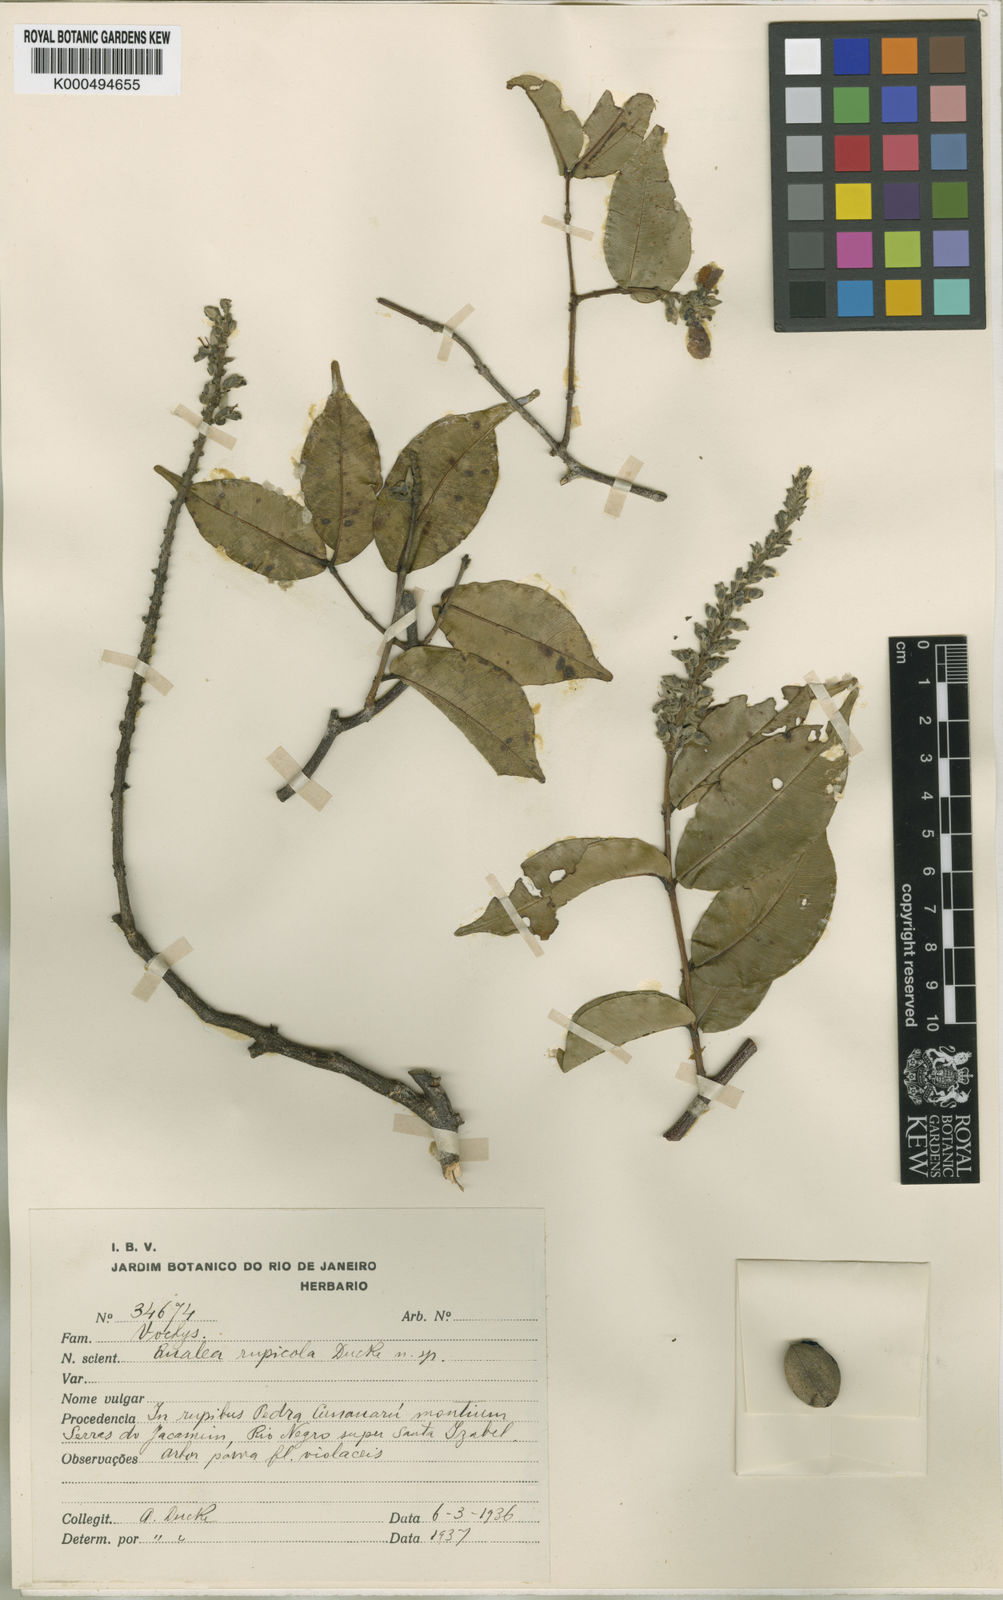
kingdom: Plantae
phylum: Tracheophyta
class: Magnoliopsida
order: Myrtales
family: Vochysiaceae
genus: Qualea
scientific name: Qualea rupicola
